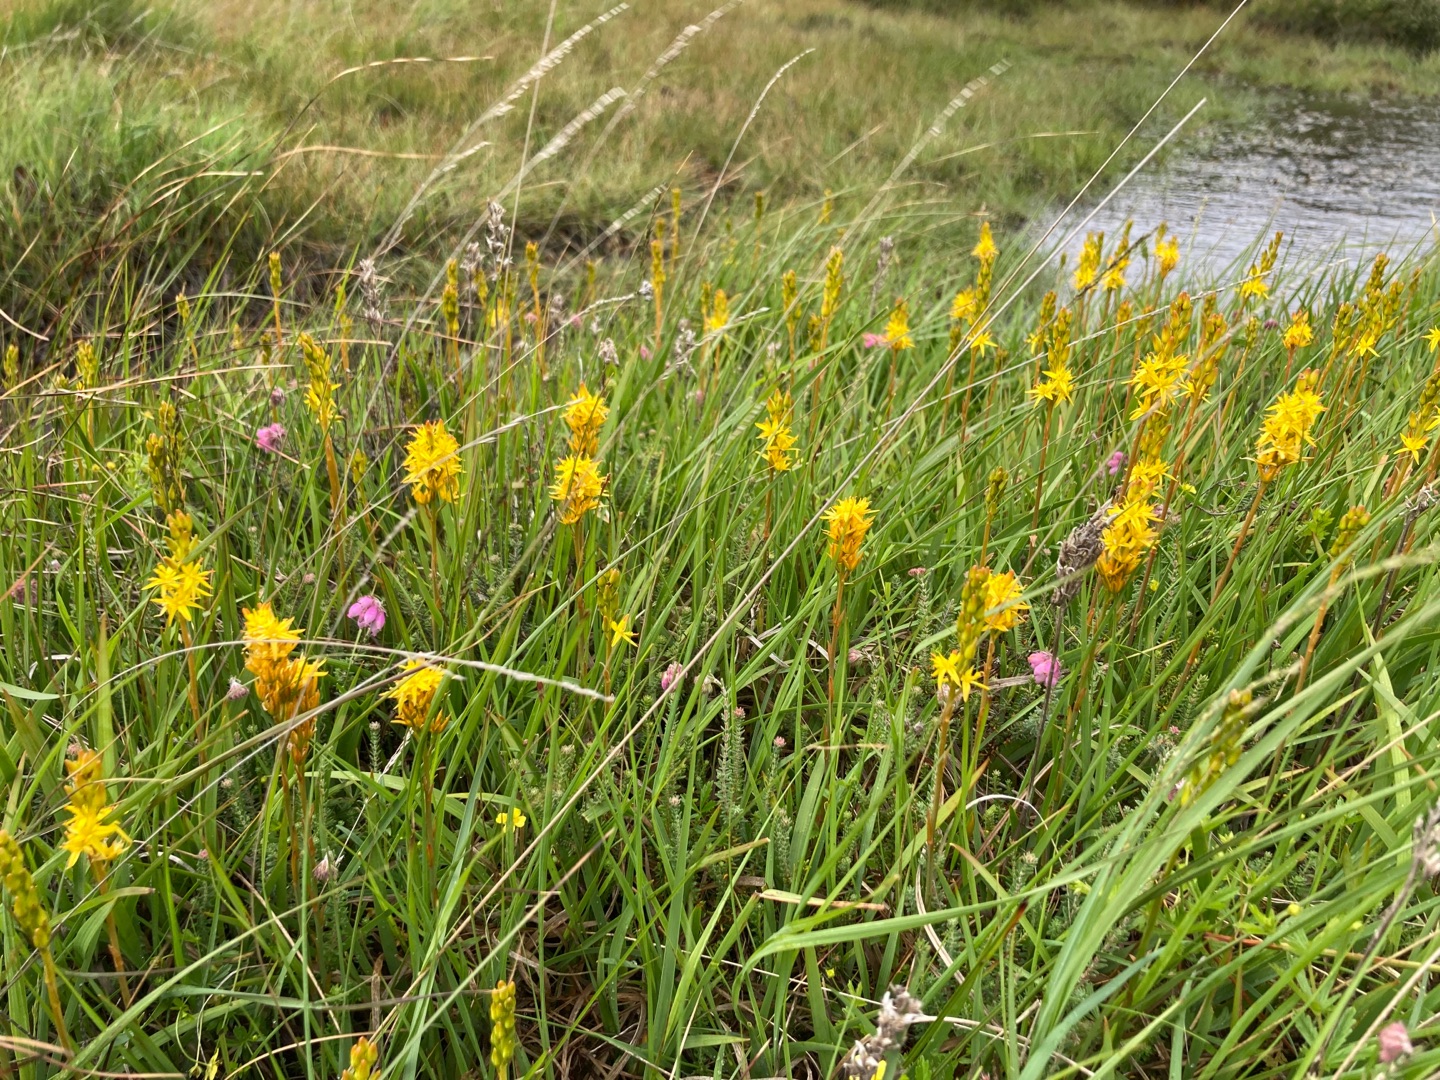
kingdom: Plantae
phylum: Tracheophyta
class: Liliopsida
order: Dioscoreales
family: Nartheciaceae
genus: Narthecium
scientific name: Narthecium ossifragum
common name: Benbræk
